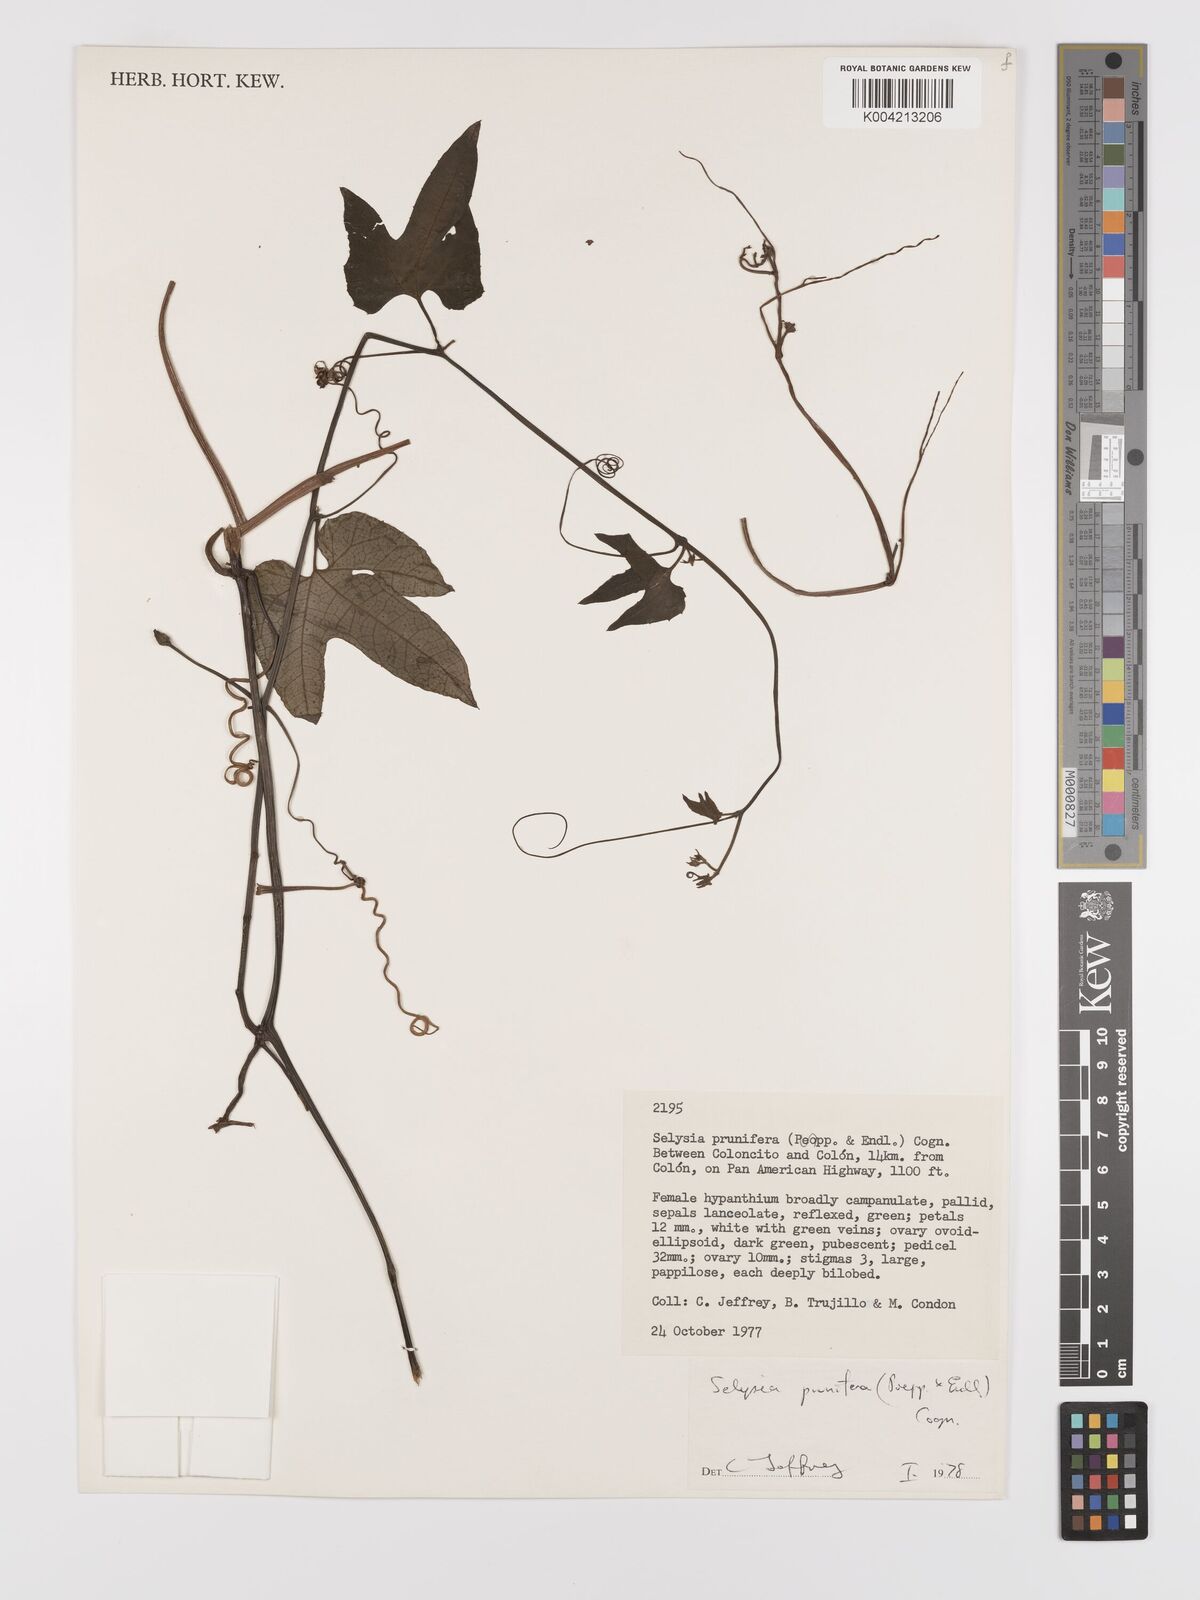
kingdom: Plantae
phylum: Tracheophyta
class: Magnoliopsida
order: Cucurbitales
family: Cucurbitaceae
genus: Cayaponia
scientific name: Cayaponia prunifera
